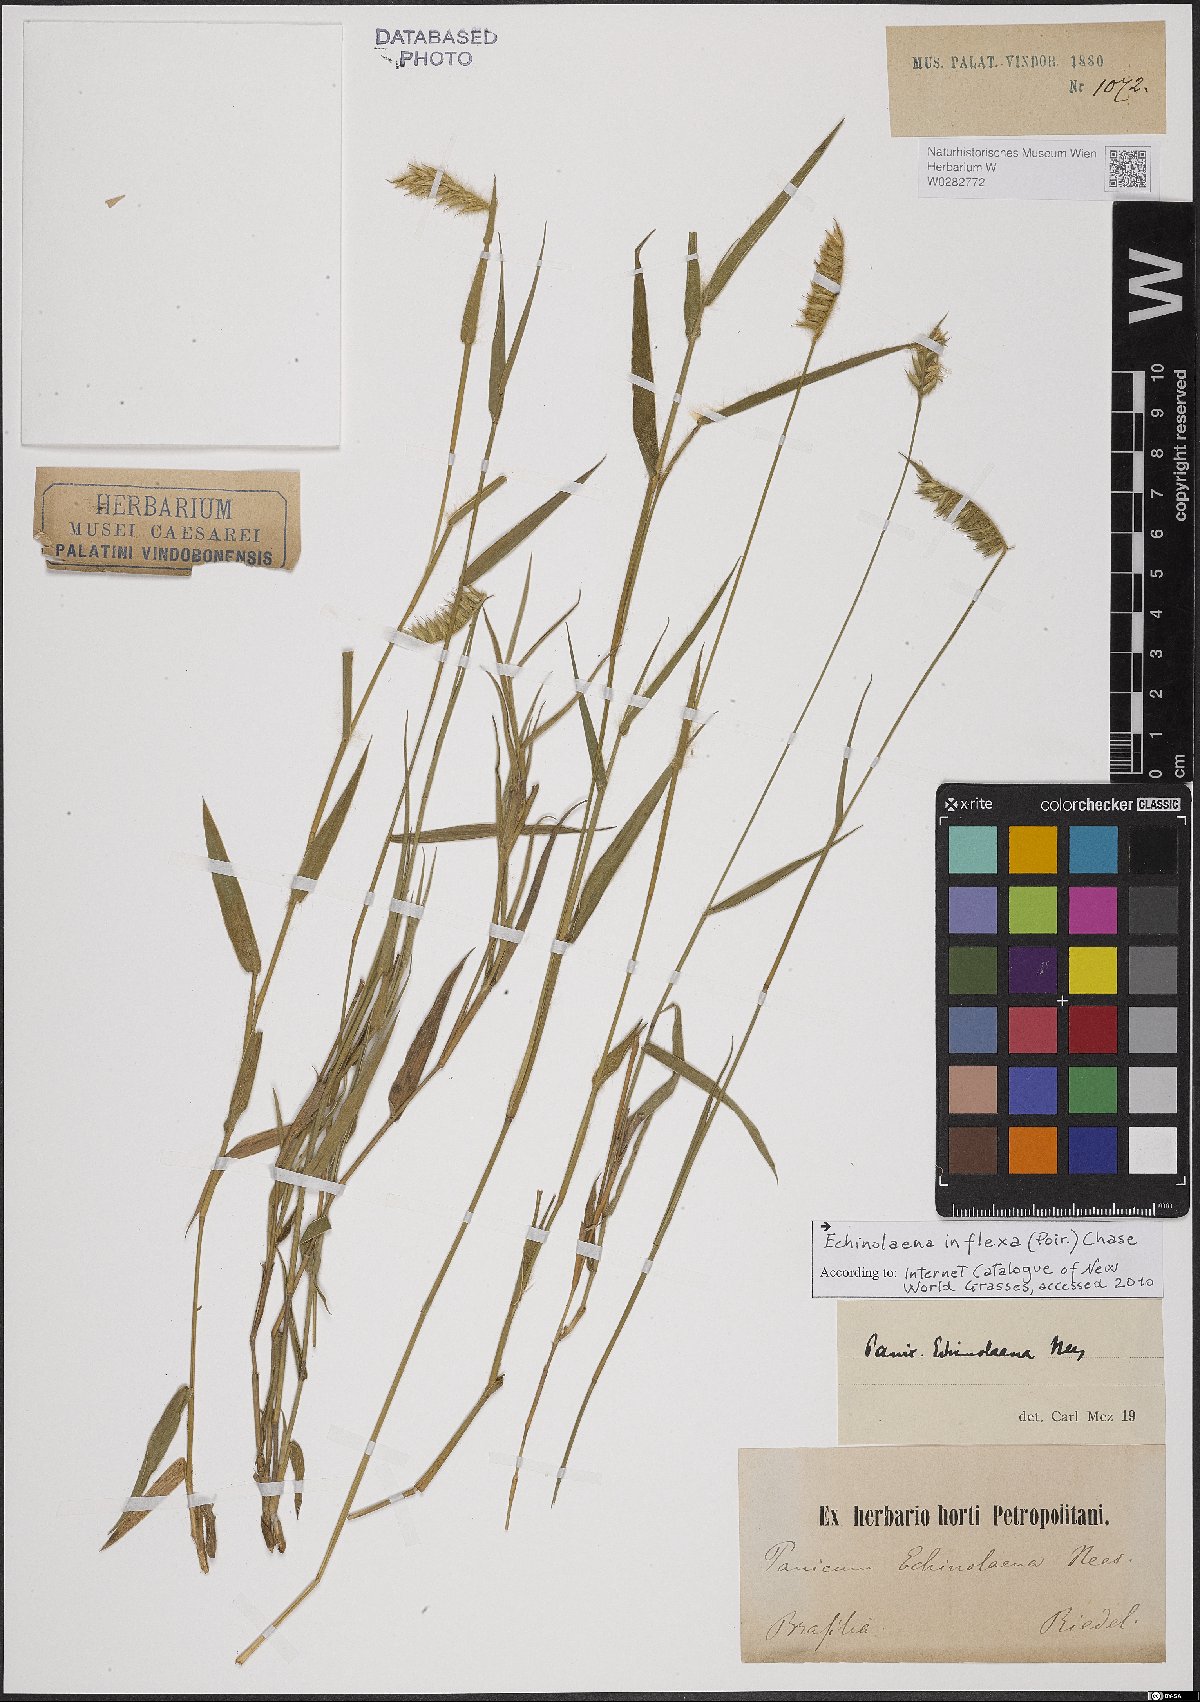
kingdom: Plantae
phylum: Tracheophyta
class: Liliopsida
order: Poales
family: Poaceae
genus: Echinolaena
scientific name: Echinolaena inflexa
